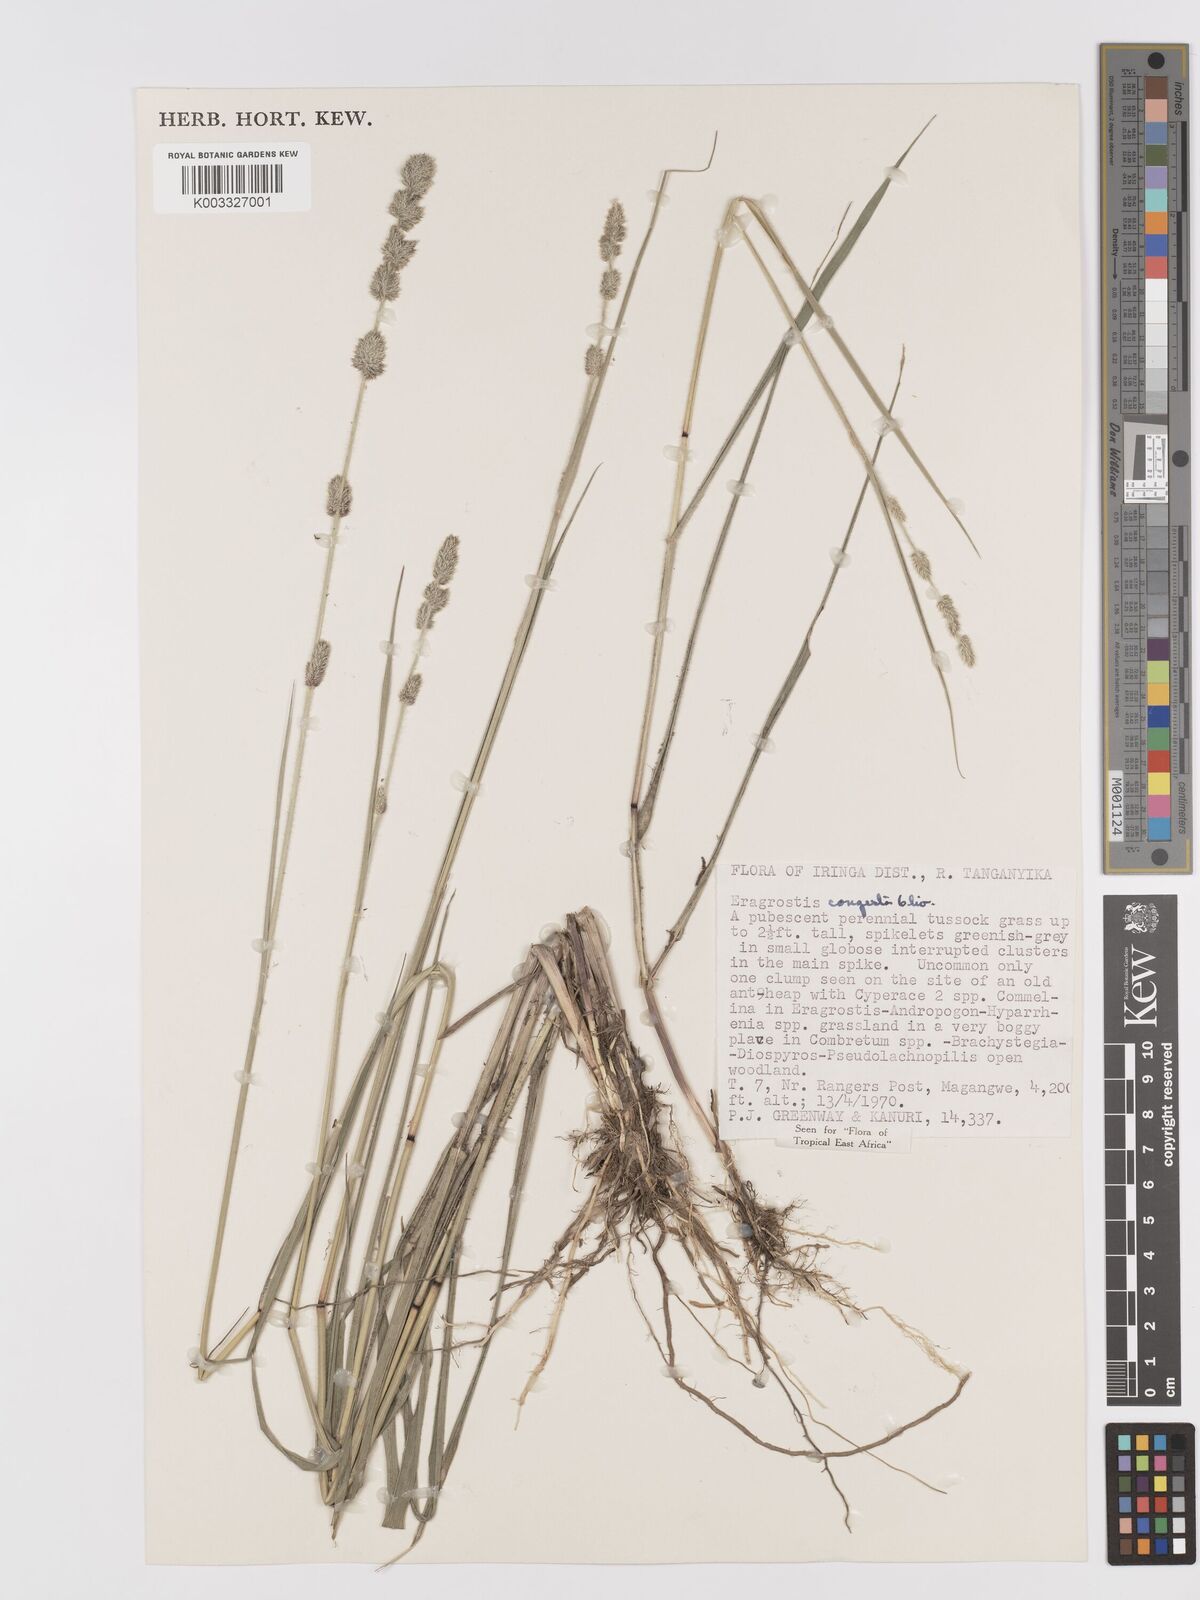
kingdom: Plantae
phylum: Tracheophyta
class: Liliopsida
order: Poales
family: Poaceae
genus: Eragrostis
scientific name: Eragrostis congesta
